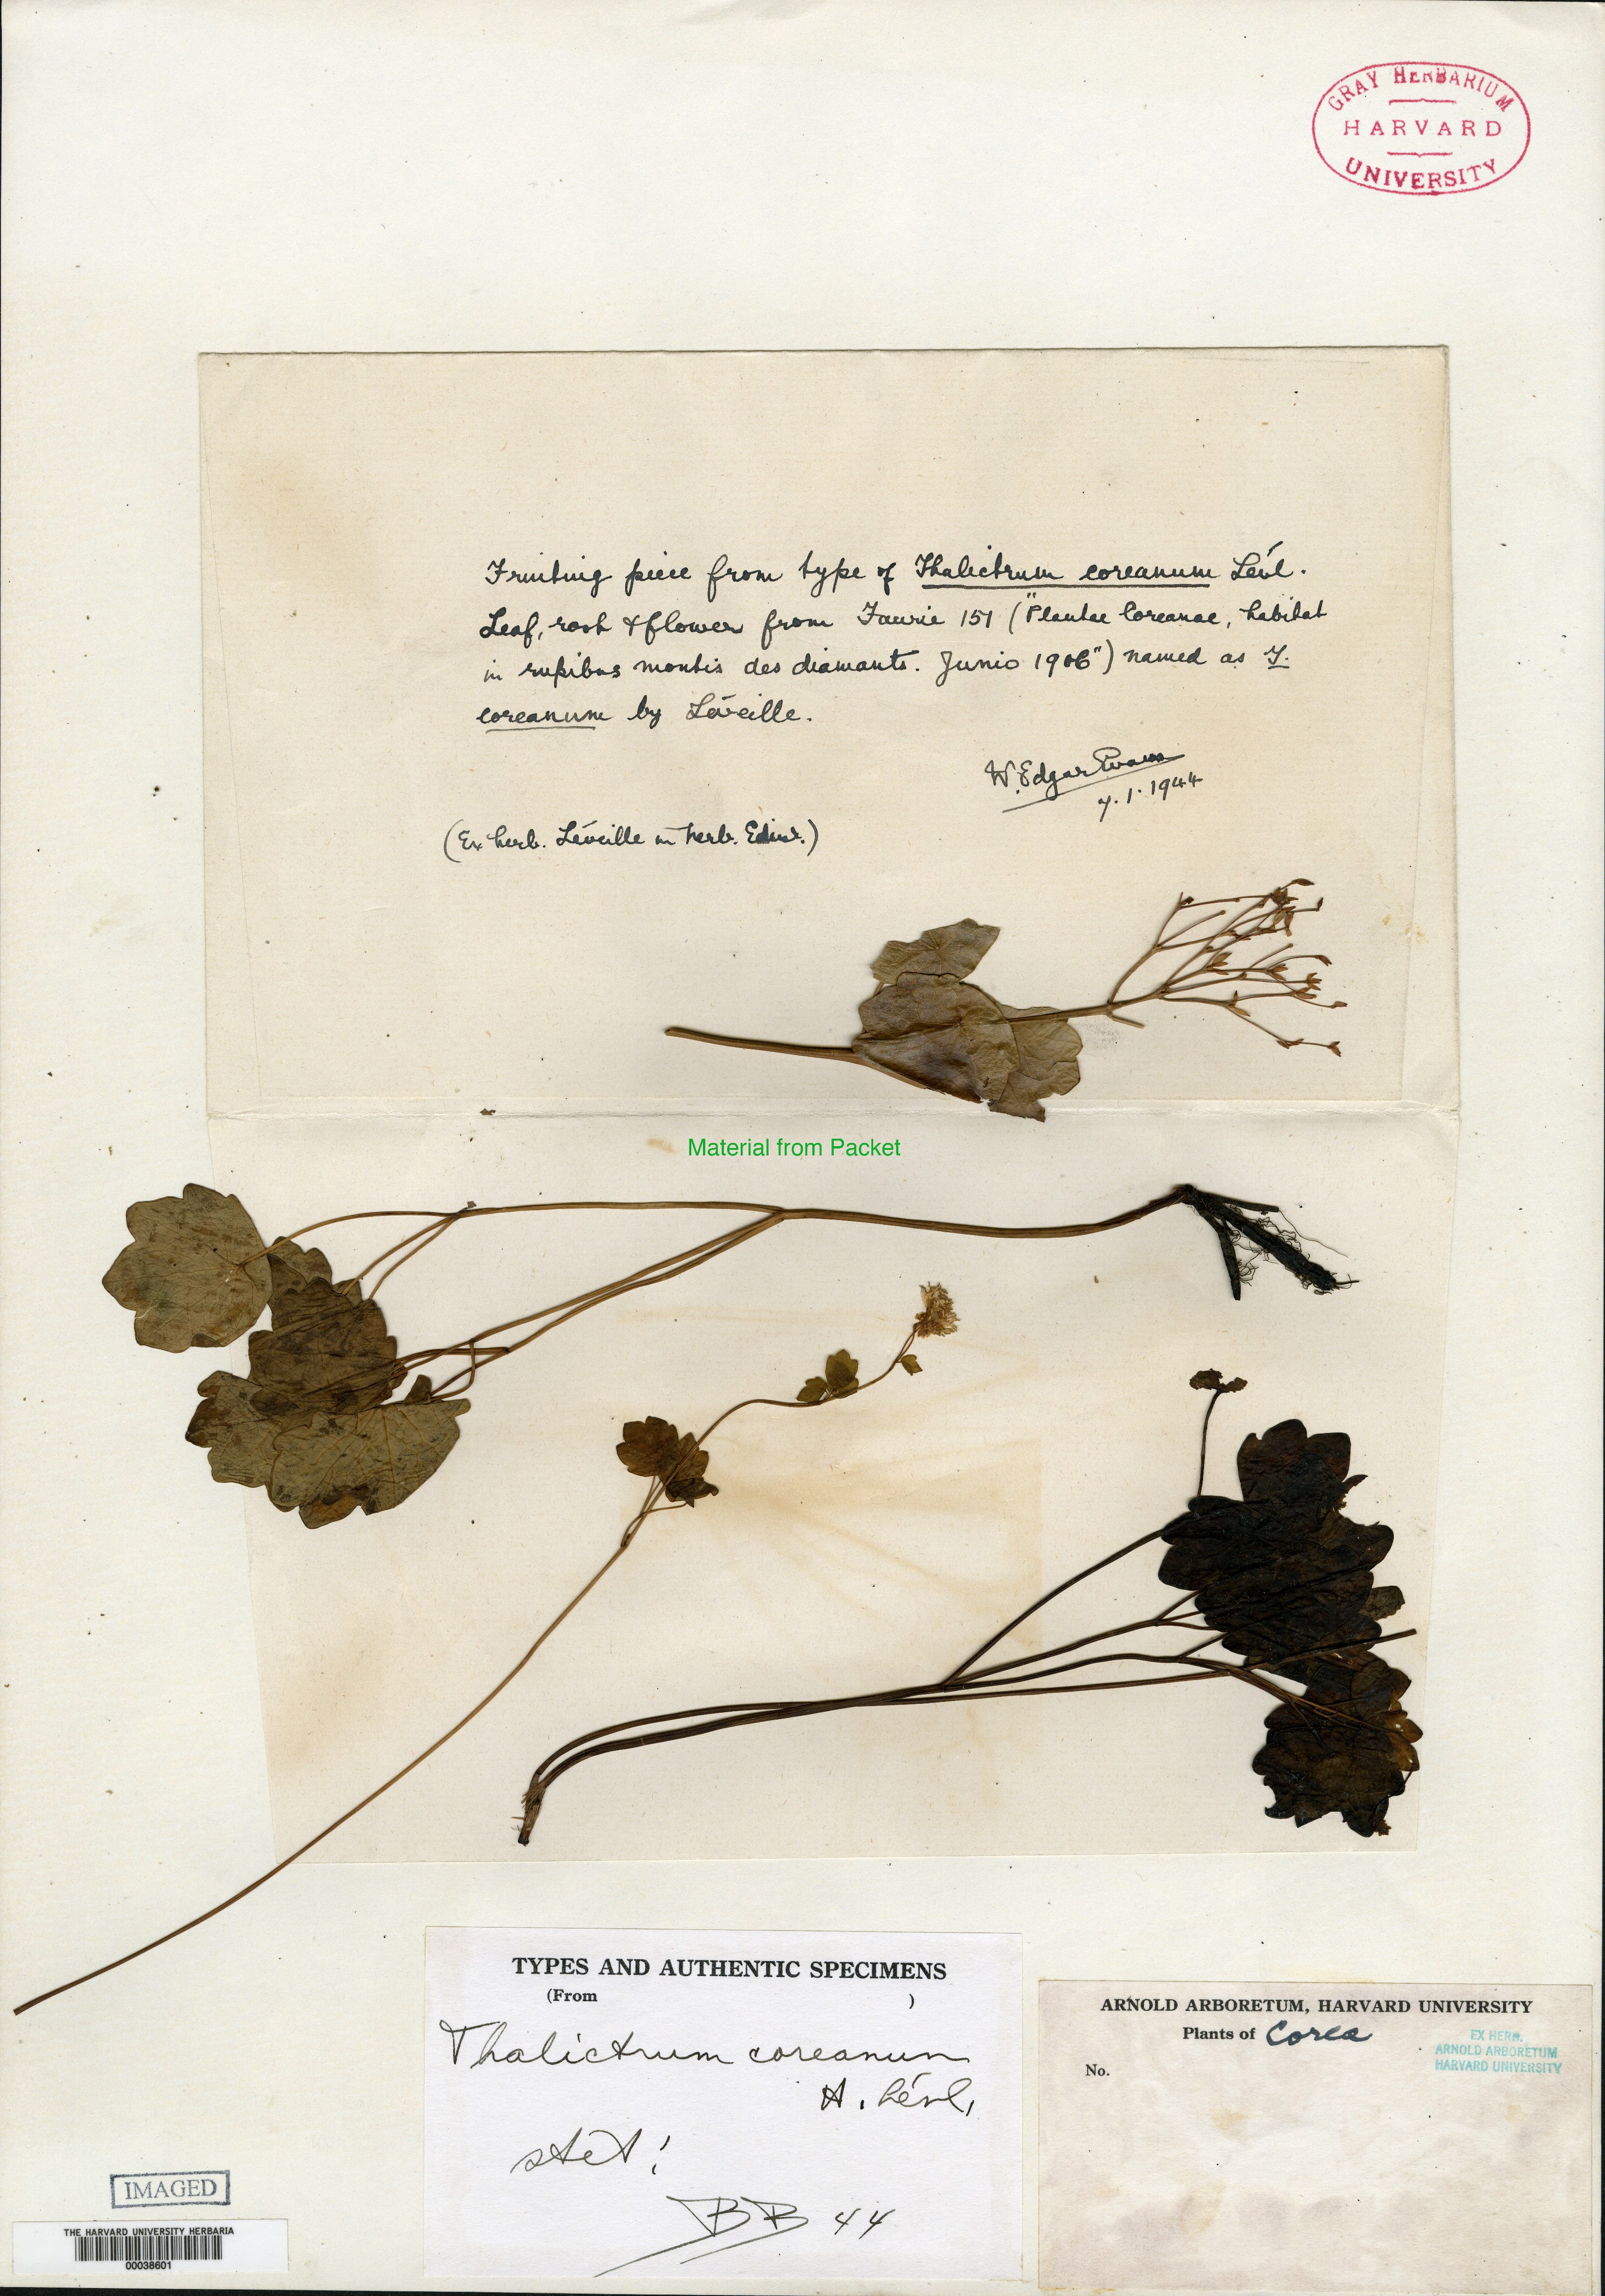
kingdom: Plantae
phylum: Tracheophyta
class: Magnoliopsida
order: Ranunculales
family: Ranunculaceae
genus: Thalictrum
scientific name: Thalictrum ichangense
